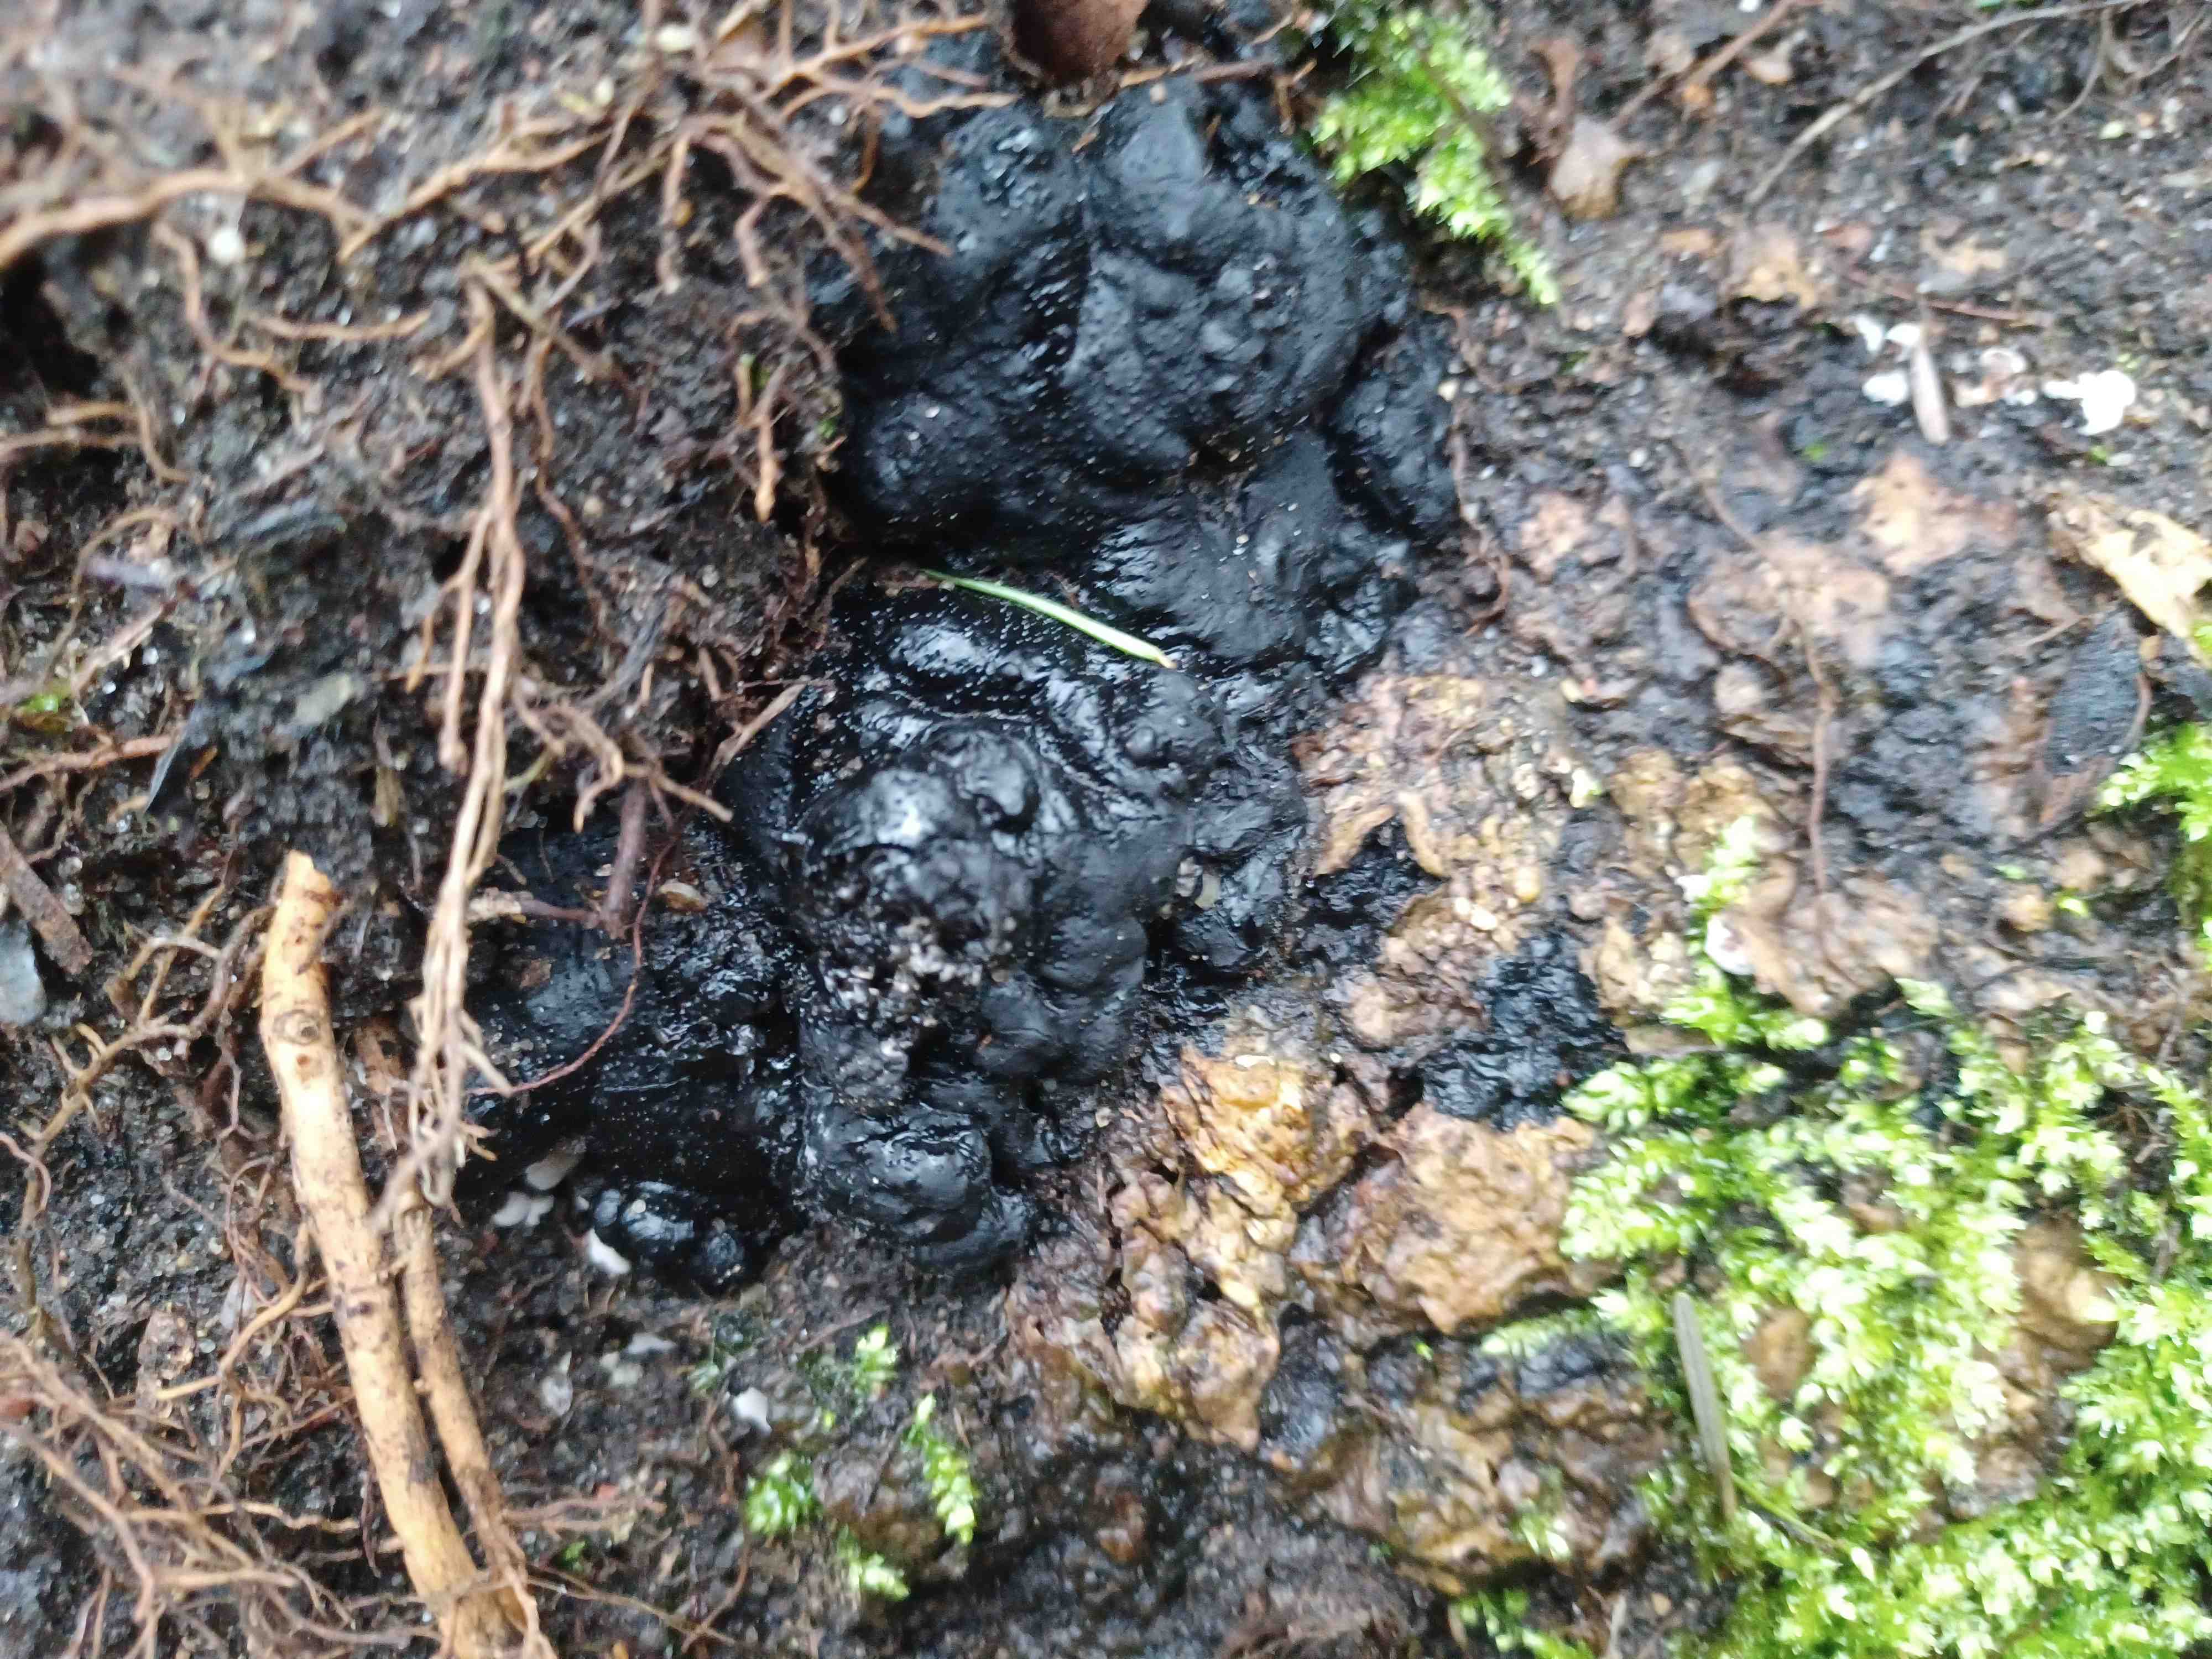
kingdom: Fungi
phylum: Ascomycota
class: Sordariomycetes
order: Xylariales
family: Xylariaceae
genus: Kretzschmaria
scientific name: Kretzschmaria deusta
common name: stor kulsvamp
